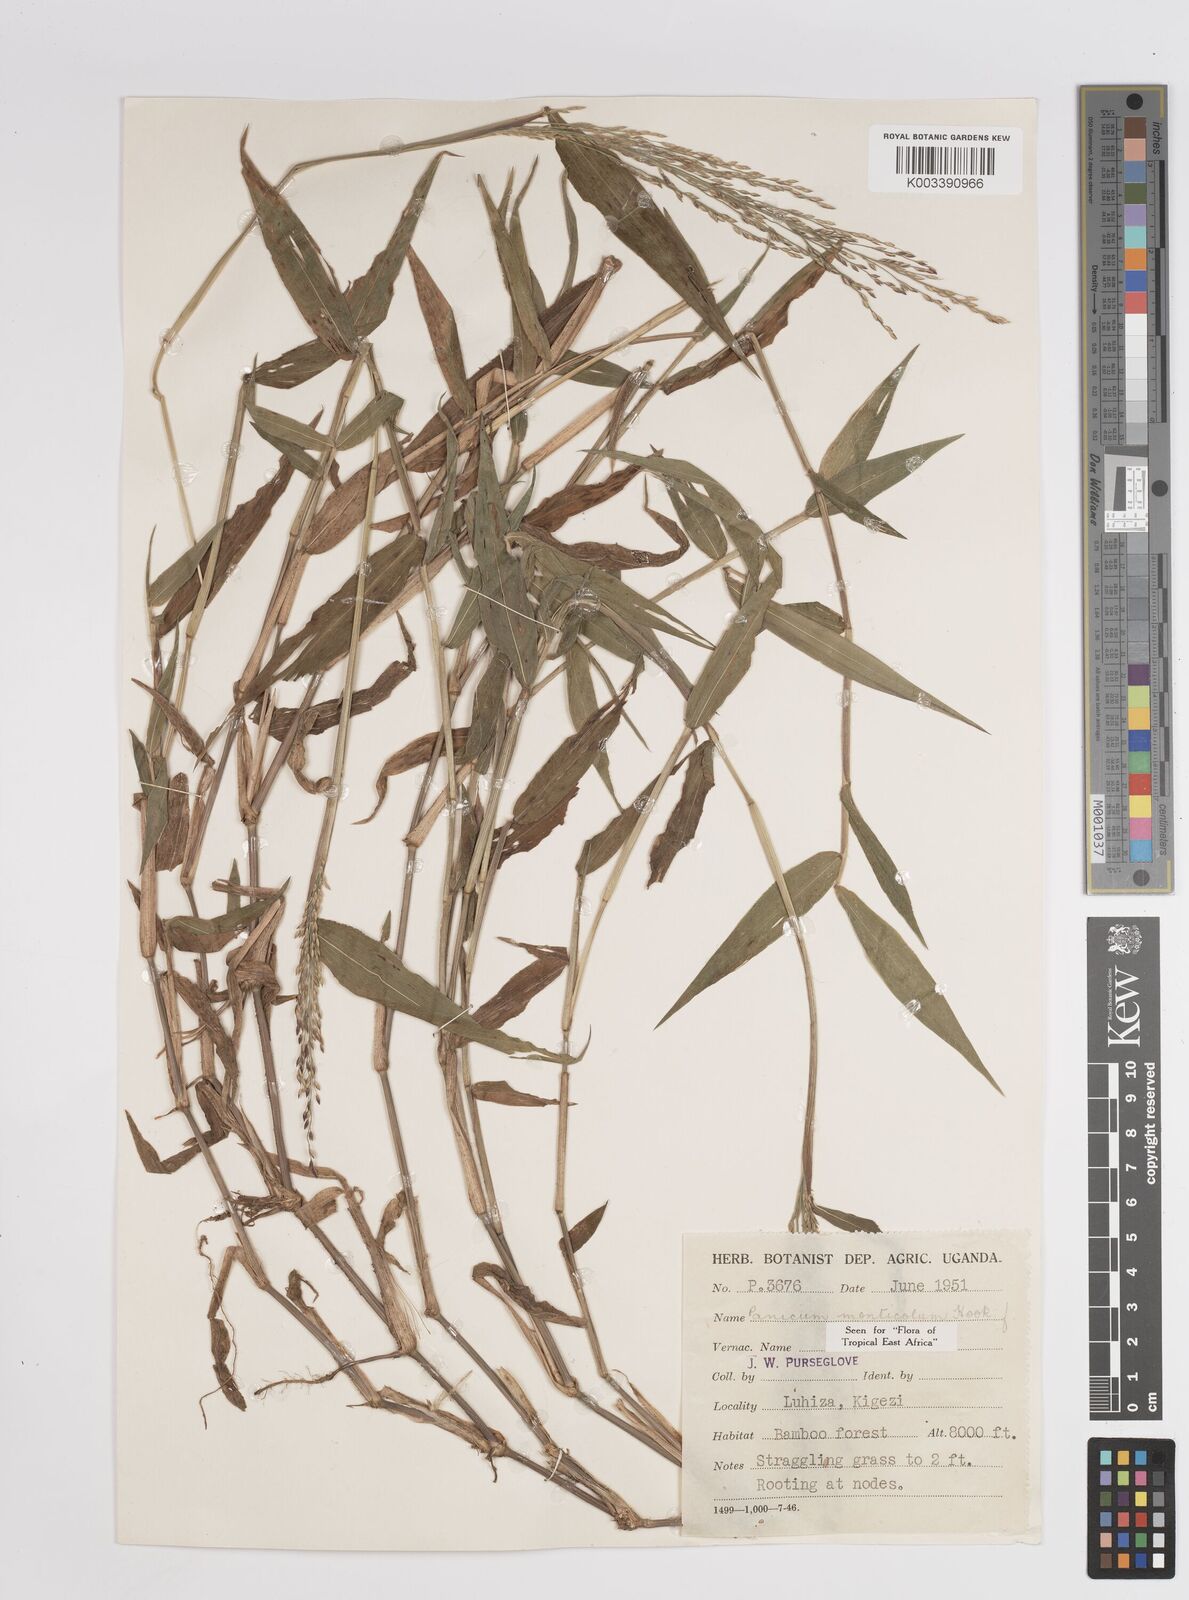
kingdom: Plantae
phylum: Tracheophyta
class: Liliopsida
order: Poales
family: Poaceae
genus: Panicum
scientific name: Panicum
